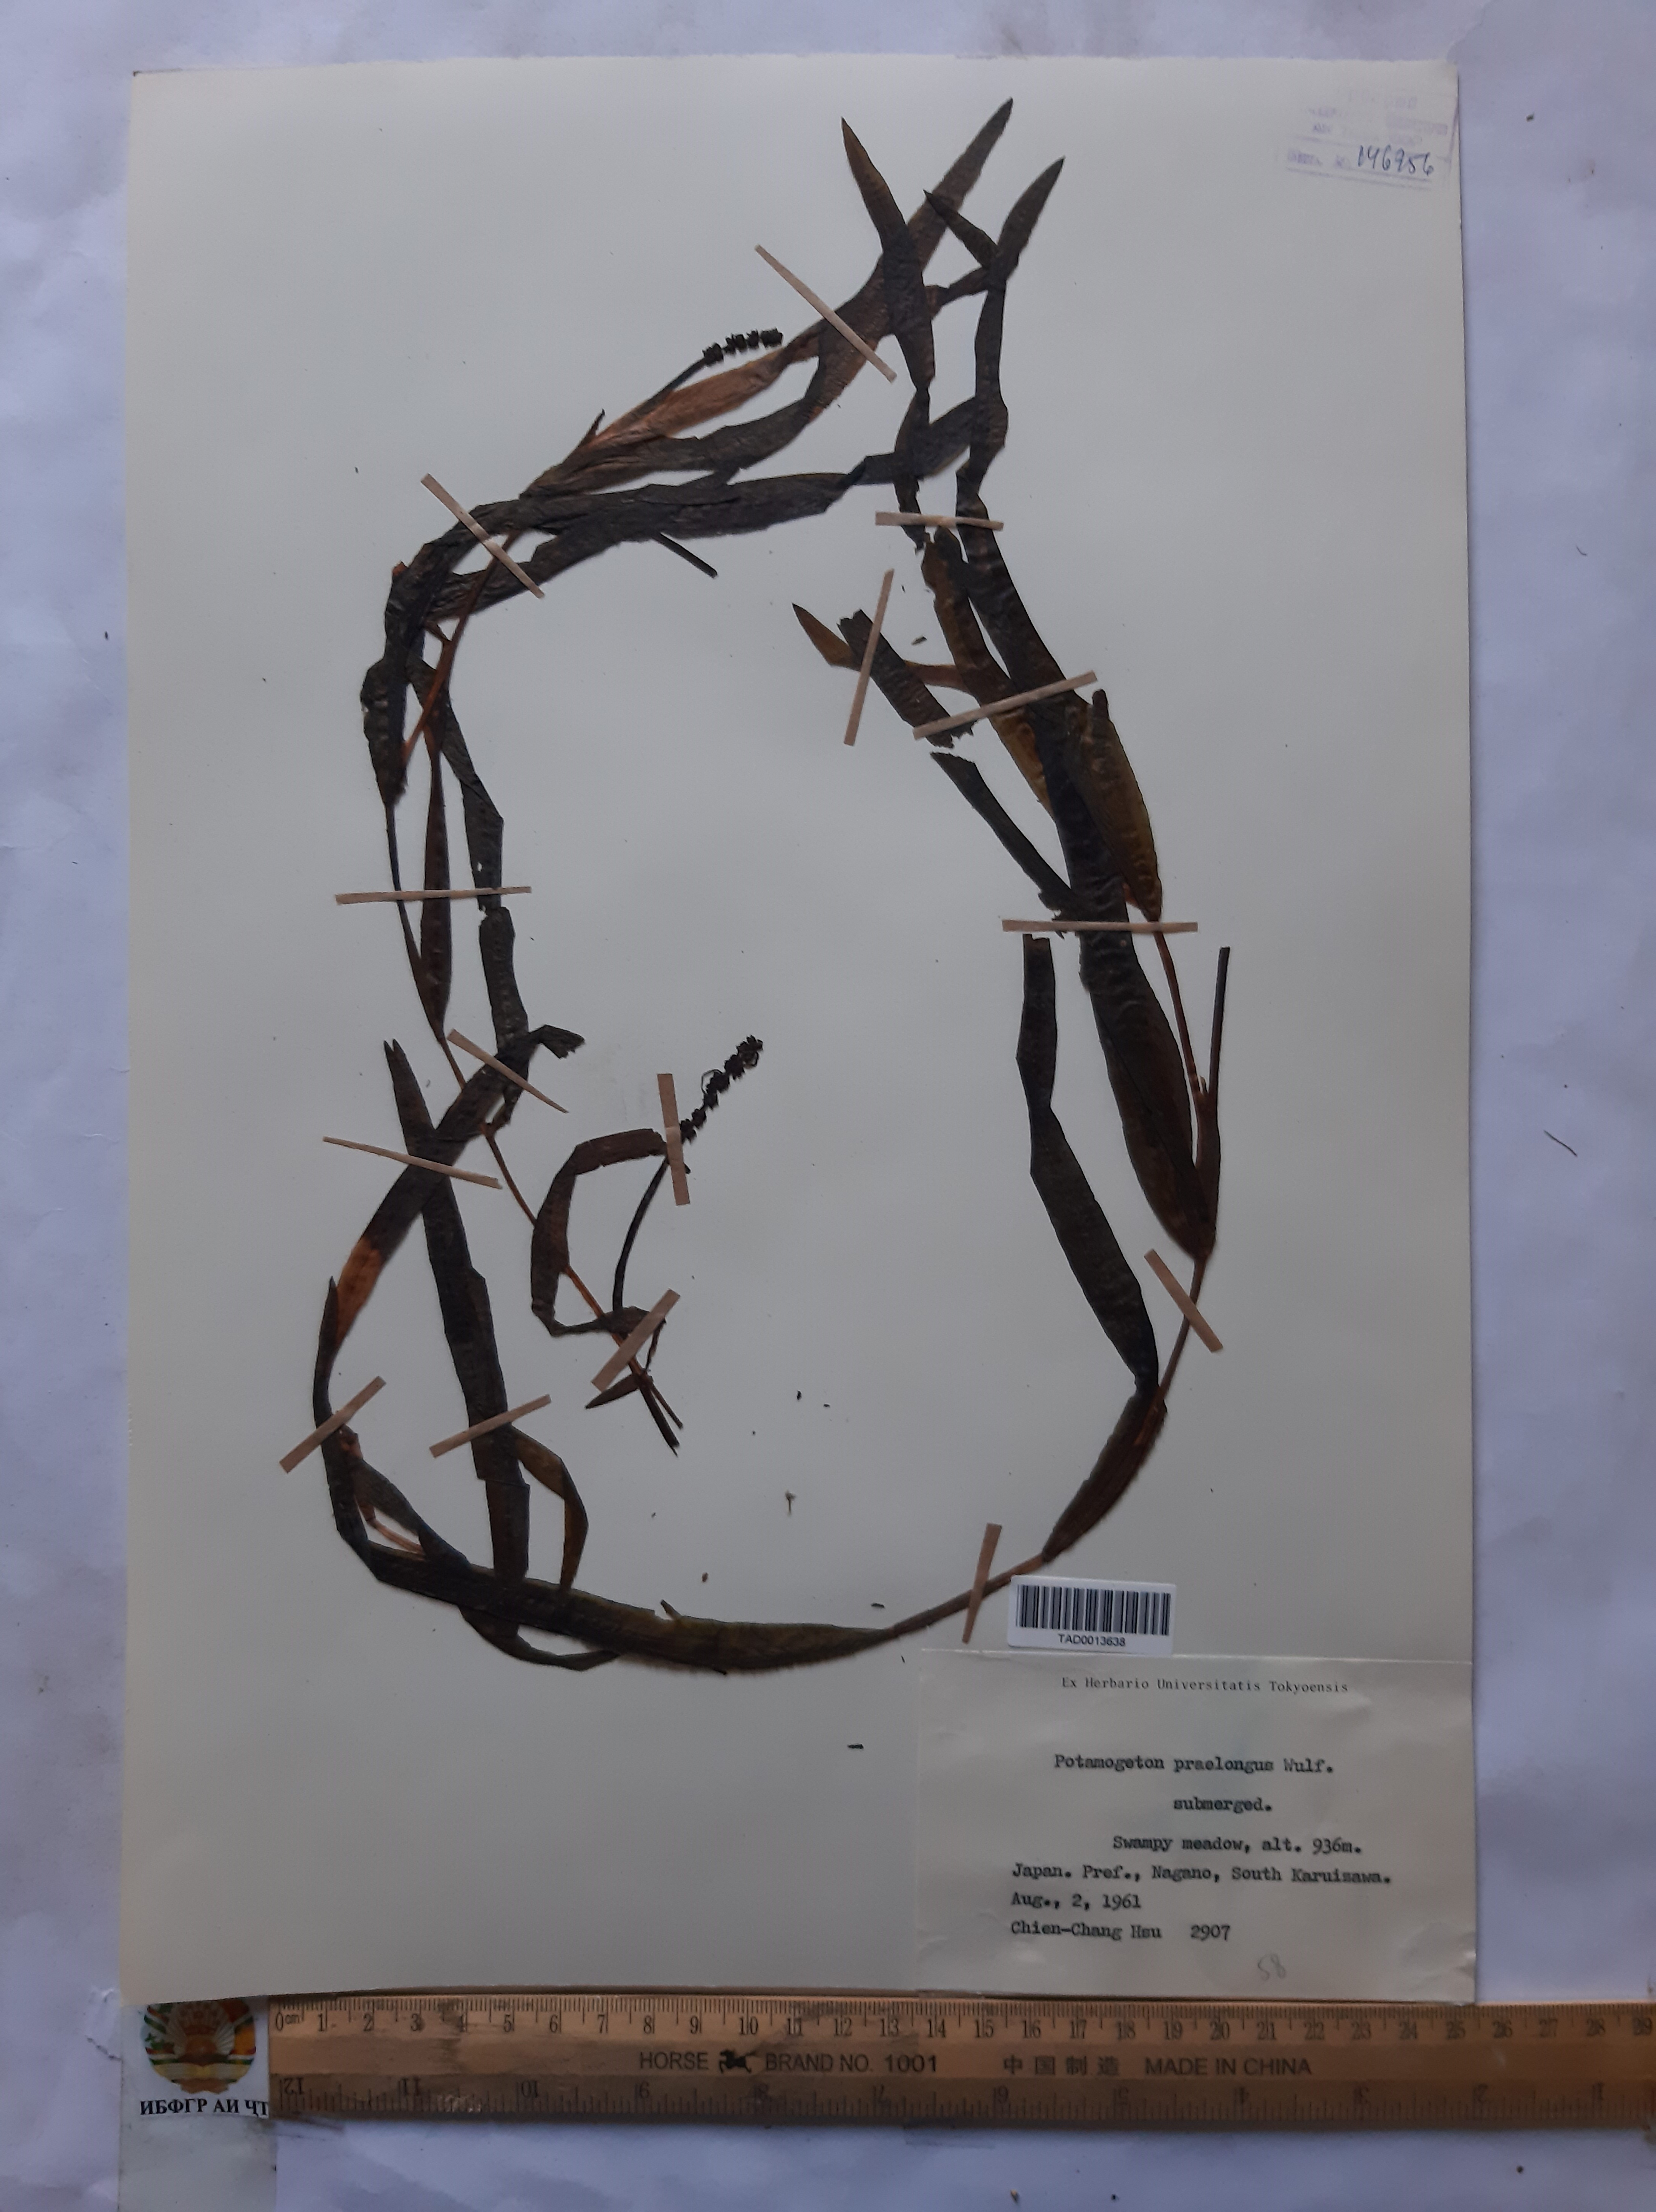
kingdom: Plantae
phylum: Tracheophyta
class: Liliopsida
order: Alismatales
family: Potamogetonaceae
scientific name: Potamogetonaceae
